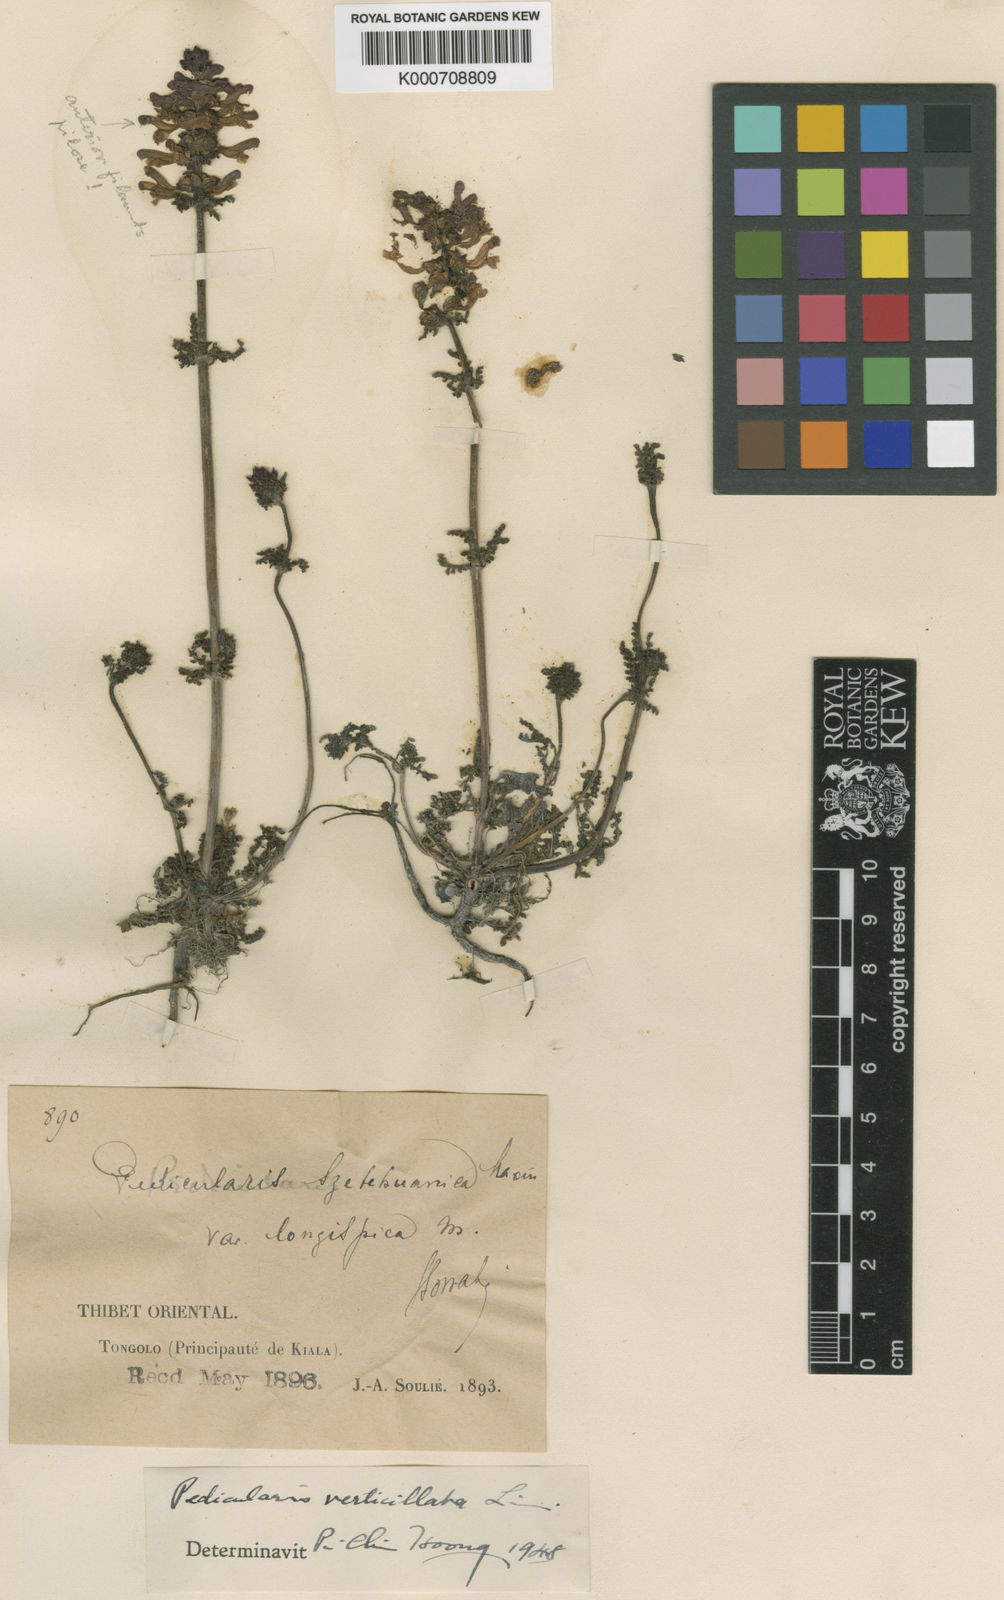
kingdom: Plantae
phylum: Tracheophyta
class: Magnoliopsida
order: Lamiales
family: Orobanchaceae
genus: Pedicularis
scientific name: Pedicularis verticillata
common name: Whorled lousewort
